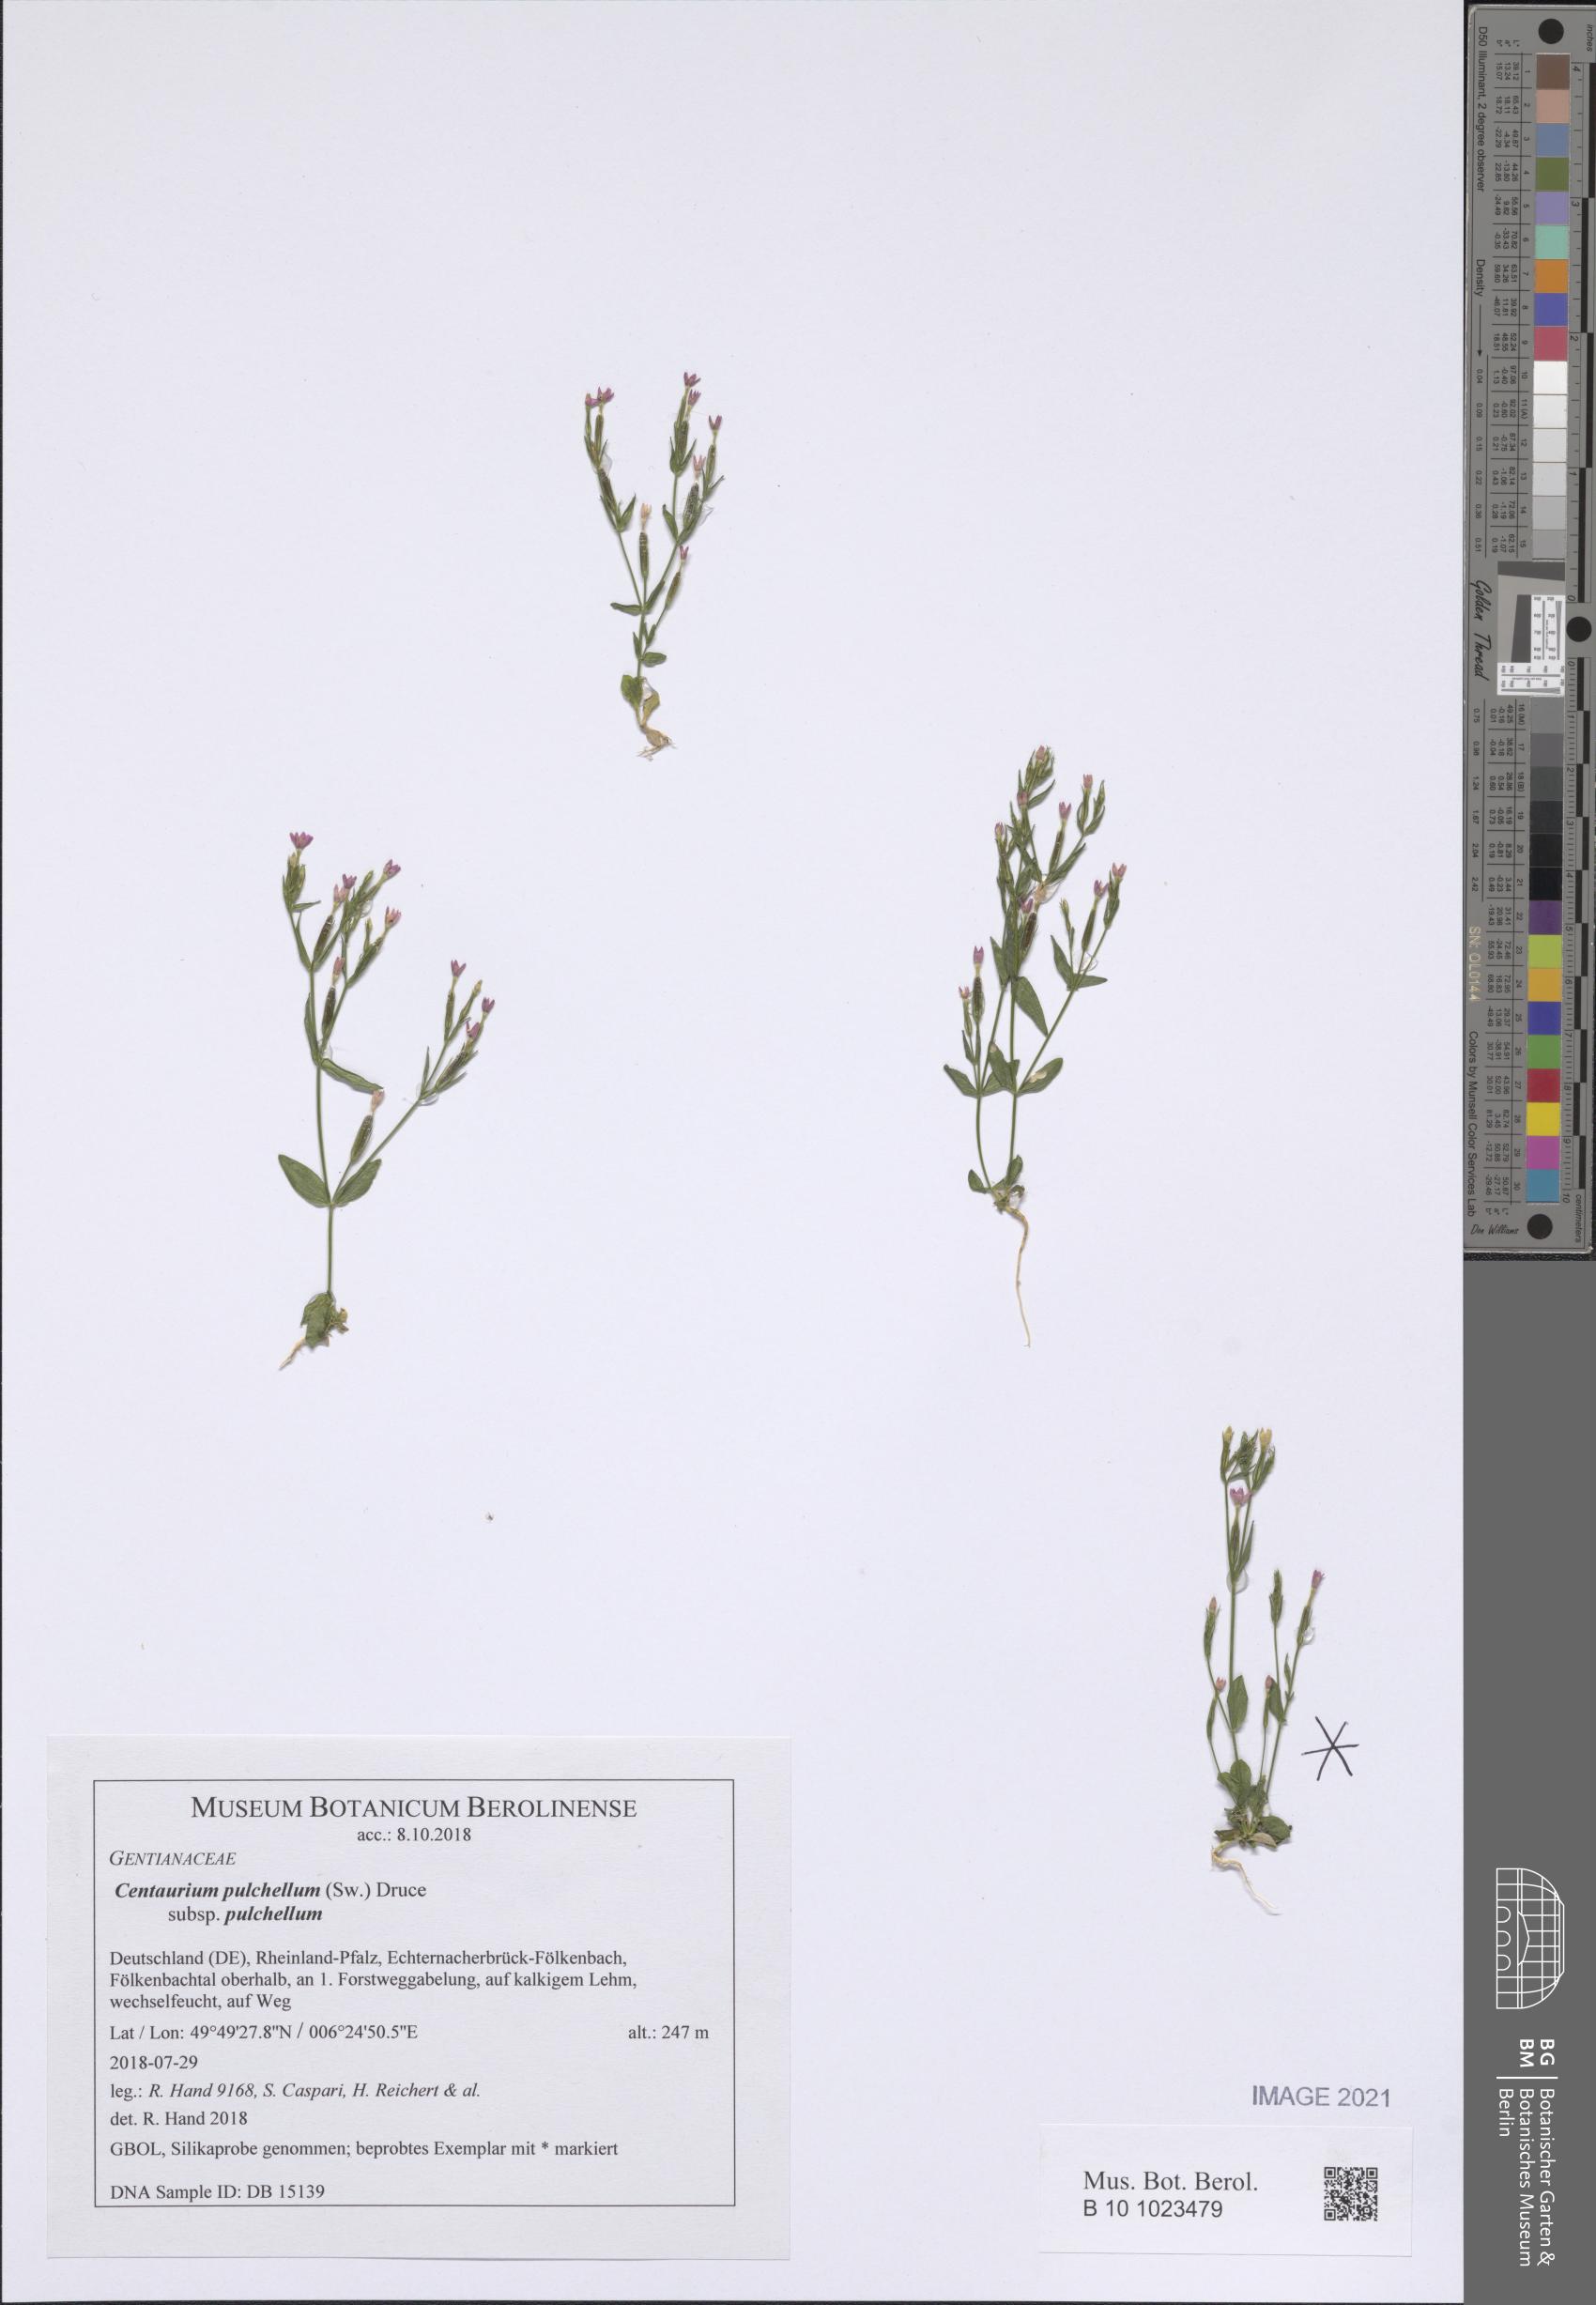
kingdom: Plantae
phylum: Tracheophyta
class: Magnoliopsida
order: Gentianales
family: Gentianaceae
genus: Centaurium
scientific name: Centaurium pulchellum
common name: Lesser centaury
